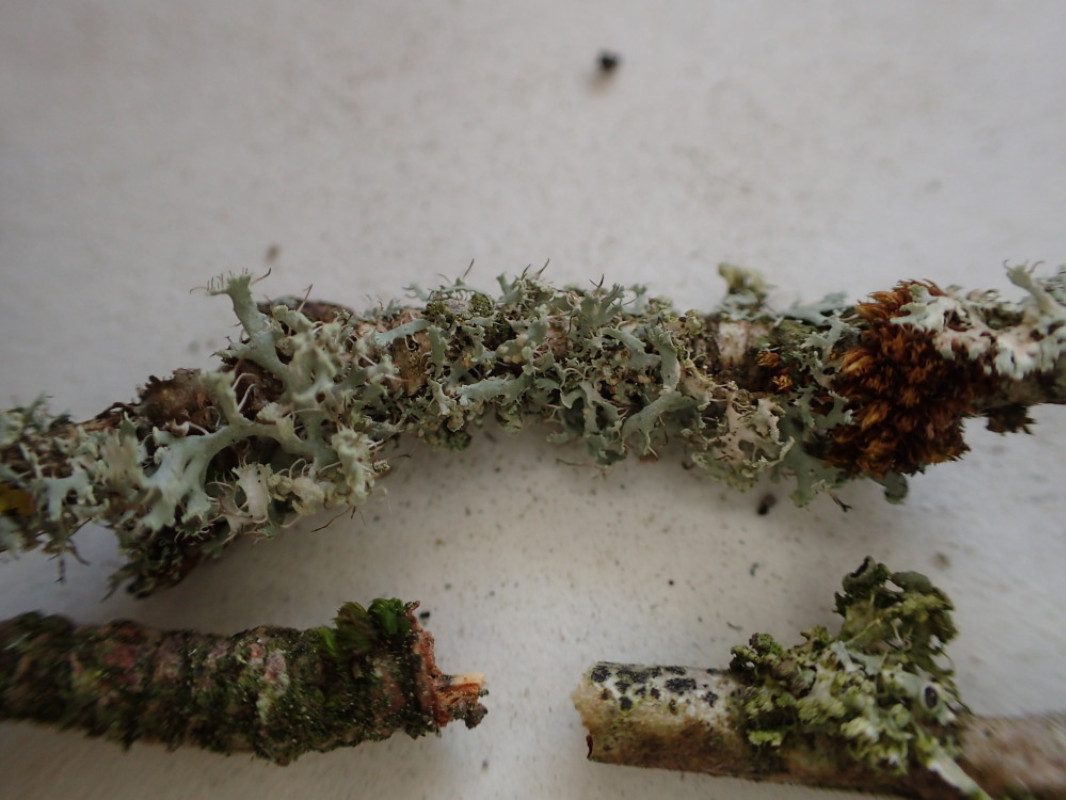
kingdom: Fungi
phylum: Ascomycota
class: Lecanoromycetes
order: Caliciales
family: Physciaceae
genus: Physcia
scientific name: Physcia tenella
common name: spæd rosetlav
